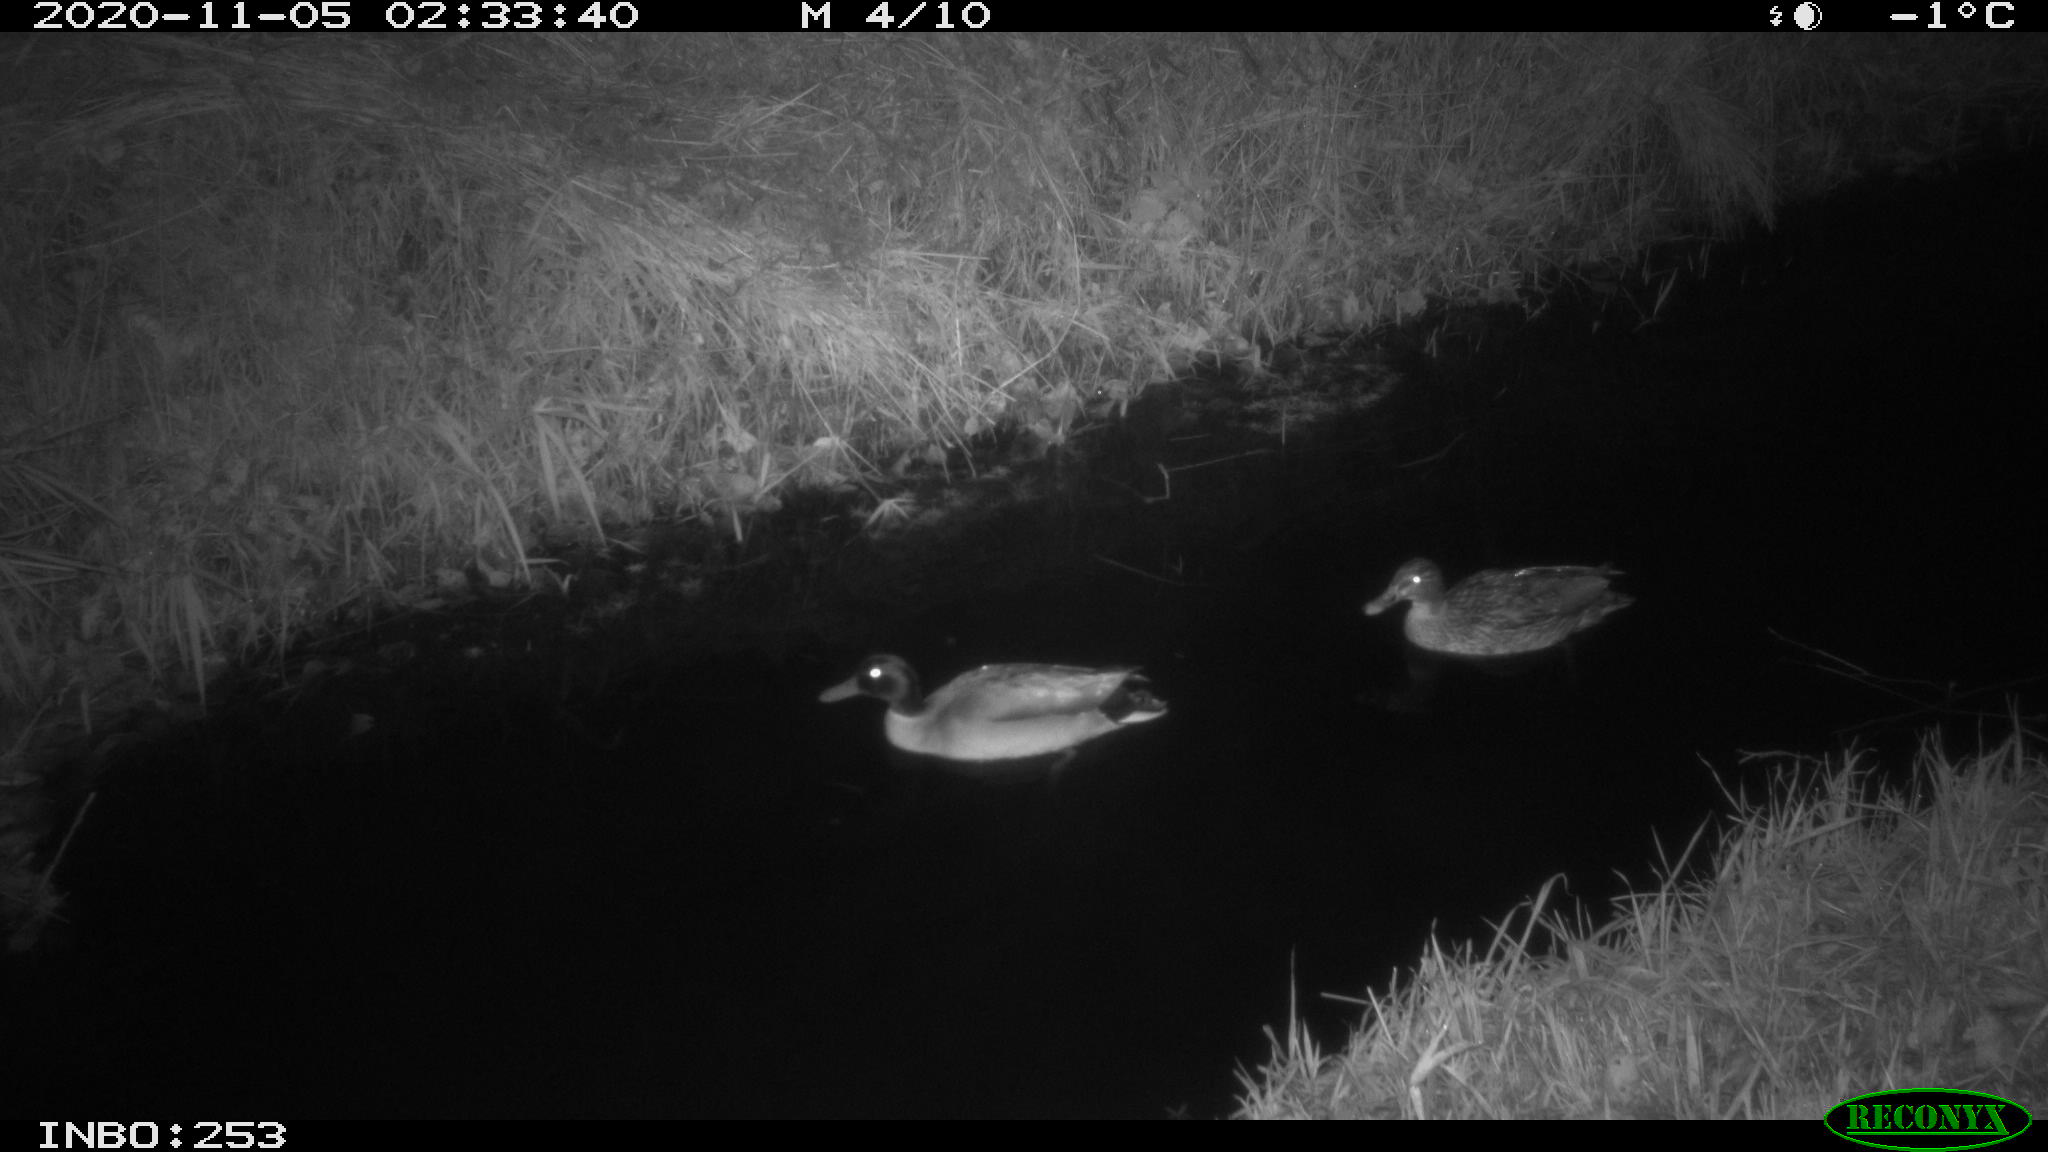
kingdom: Animalia
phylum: Chordata
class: Aves
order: Anseriformes
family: Anatidae
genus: Anas
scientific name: Anas platyrhynchos
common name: Mallard
